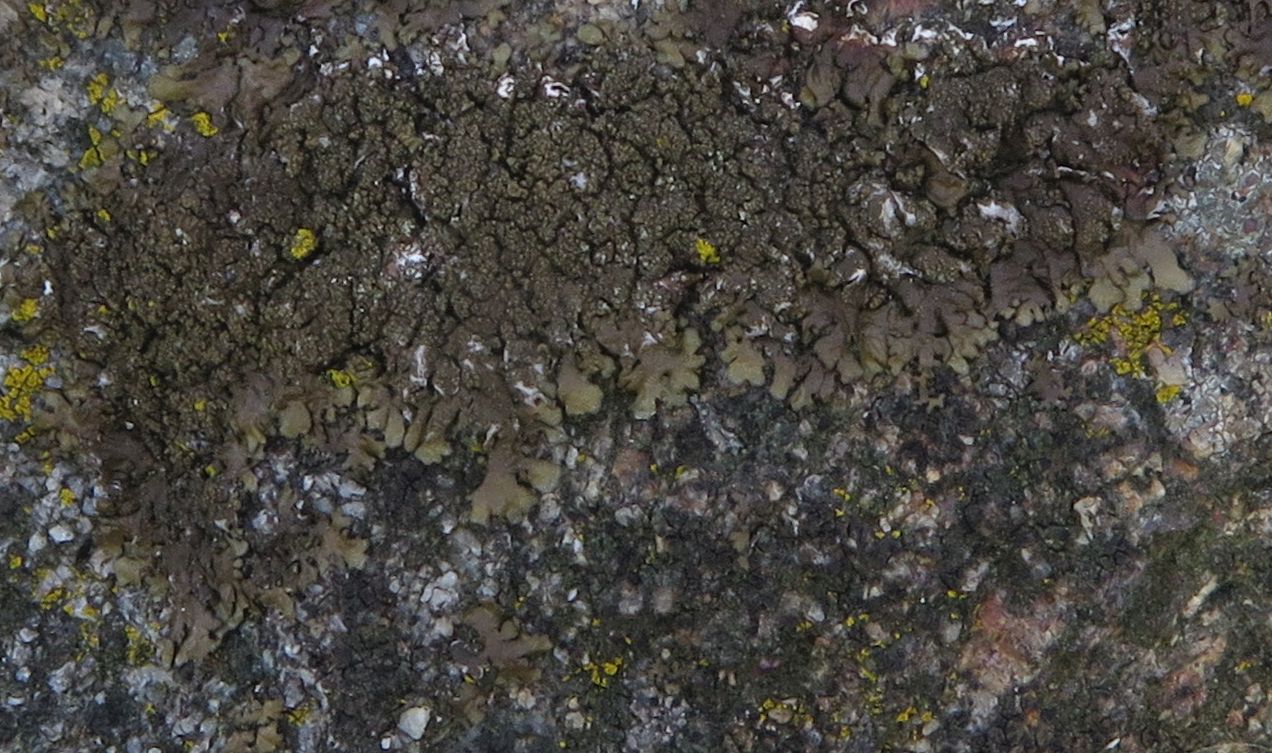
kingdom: Fungi
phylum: Ascomycota
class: Lecanoromycetes
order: Lecanorales
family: Parmeliaceae
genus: Xanthoparmelia
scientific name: Xanthoparmelia verruculifera
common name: småknoppet skållav
